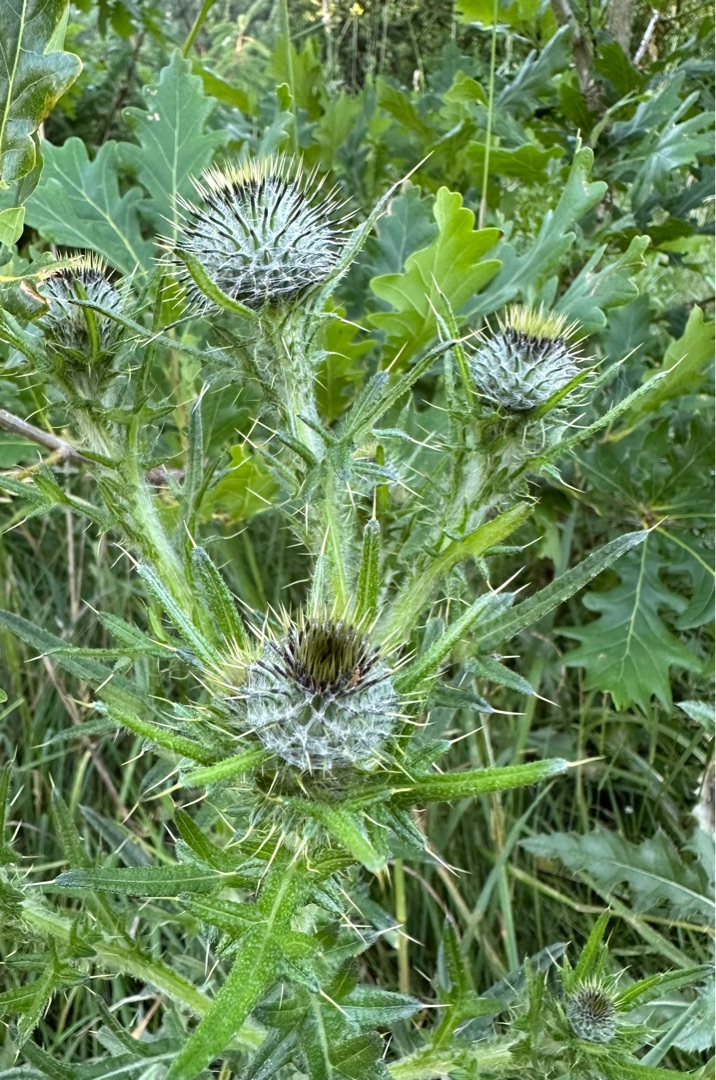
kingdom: Plantae
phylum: Tracheophyta
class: Magnoliopsida
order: Asterales
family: Asteraceae
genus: Cirsium
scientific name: Cirsium vulgare
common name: Horse-tidsel
